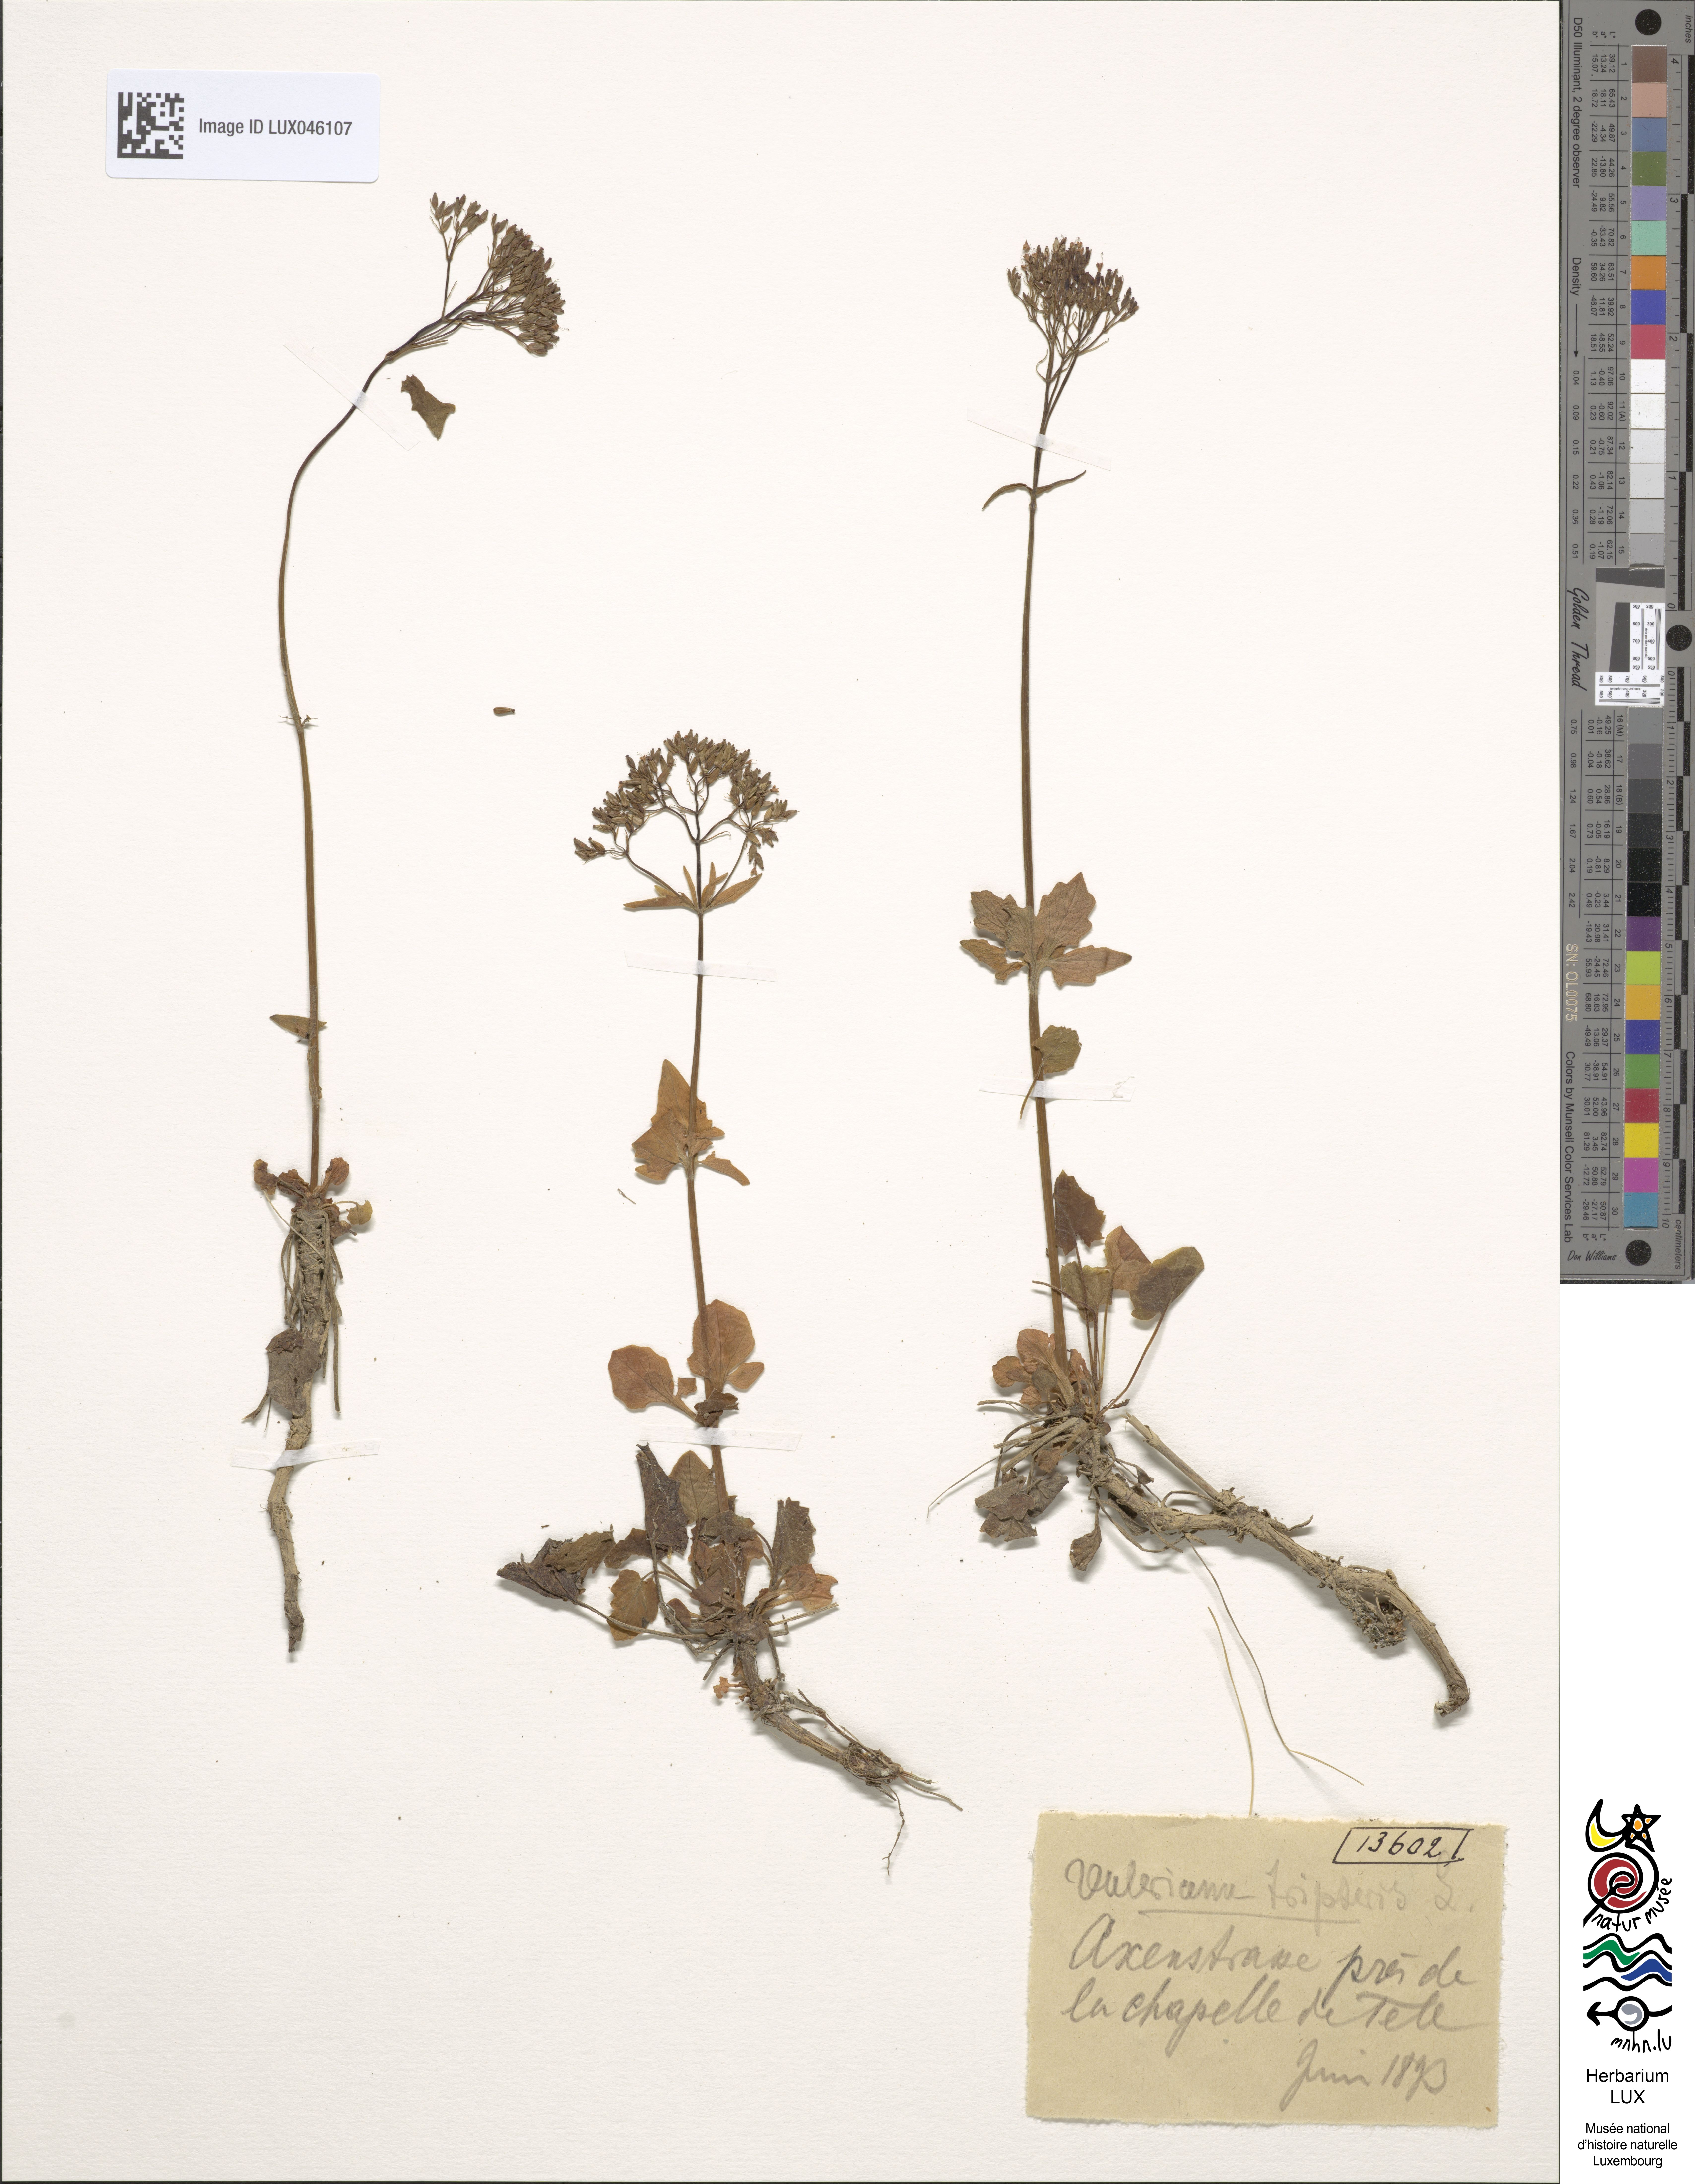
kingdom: Plantae
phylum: Tracheophyta
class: Magnoliopsida
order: Dipsacales
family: Caprifoliaceae
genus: Valeriana
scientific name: Valeriana tripteris
